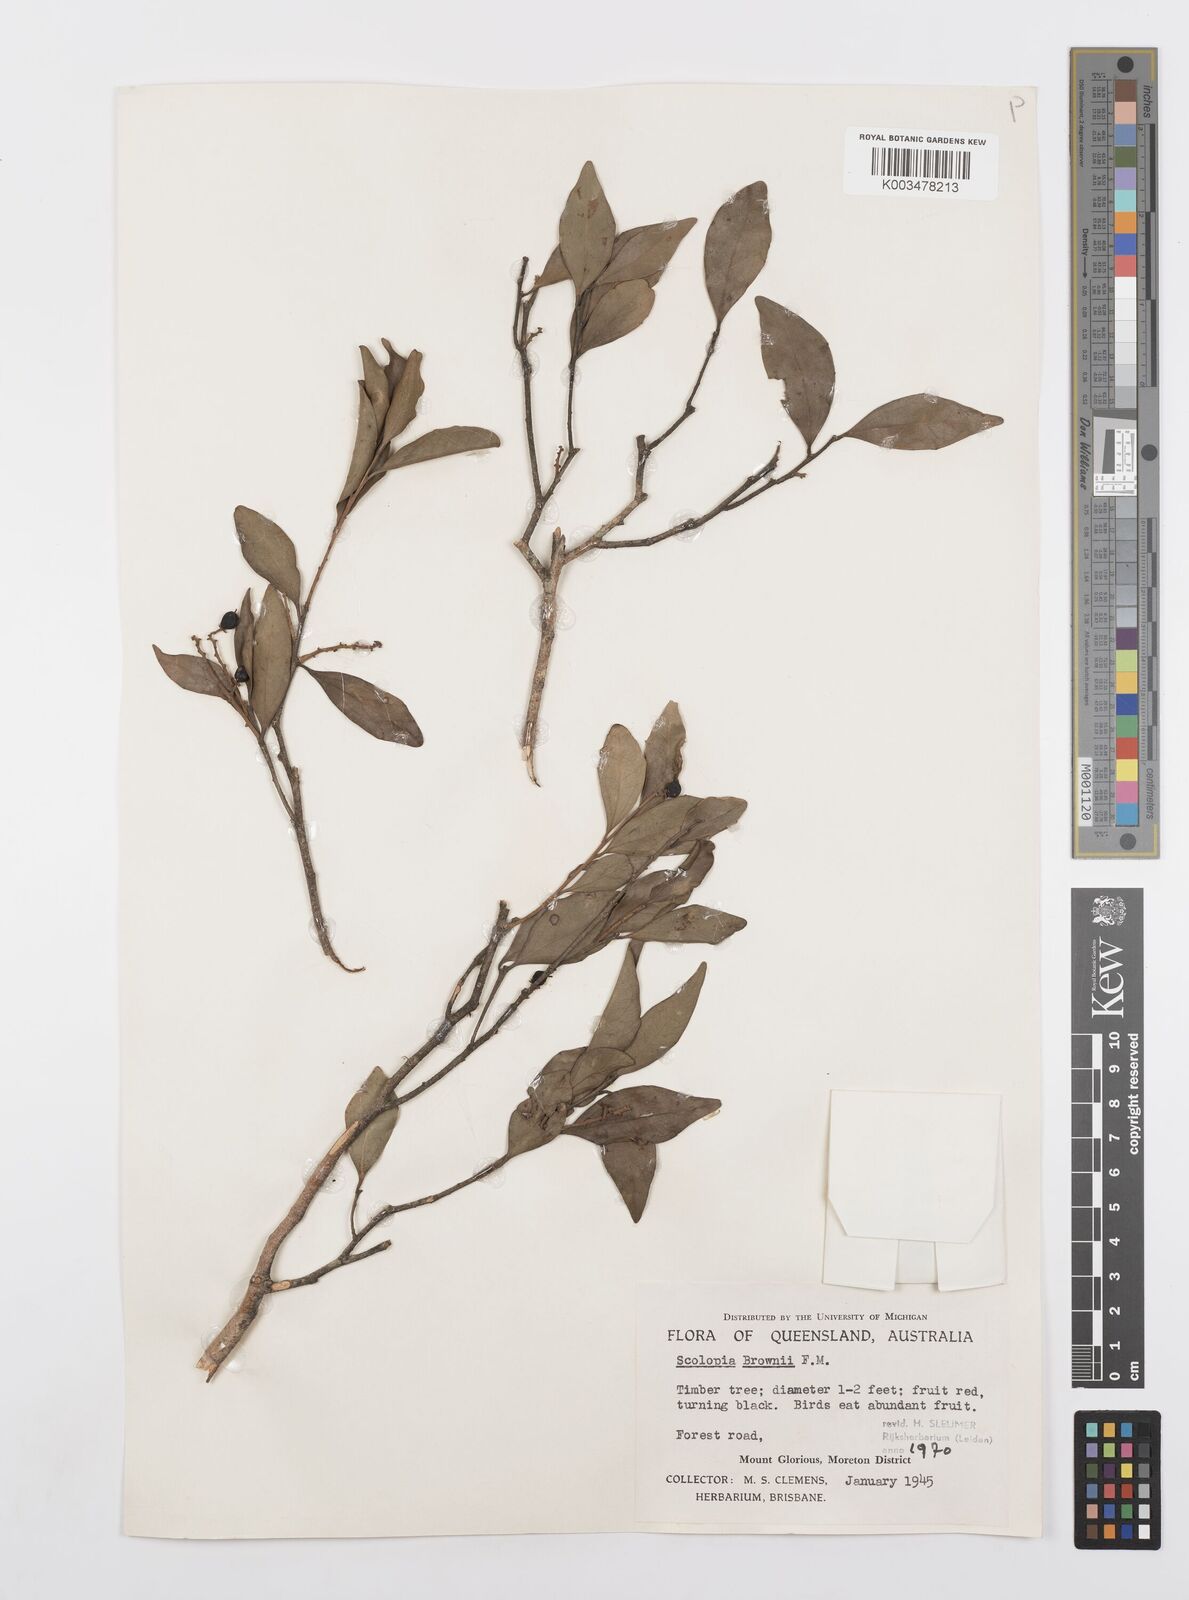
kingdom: Plantae
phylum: Tracheophyta
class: Magnoliopsida
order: Malpighiales
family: Salicaceae
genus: Scolopia
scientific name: Scolopia braunii
